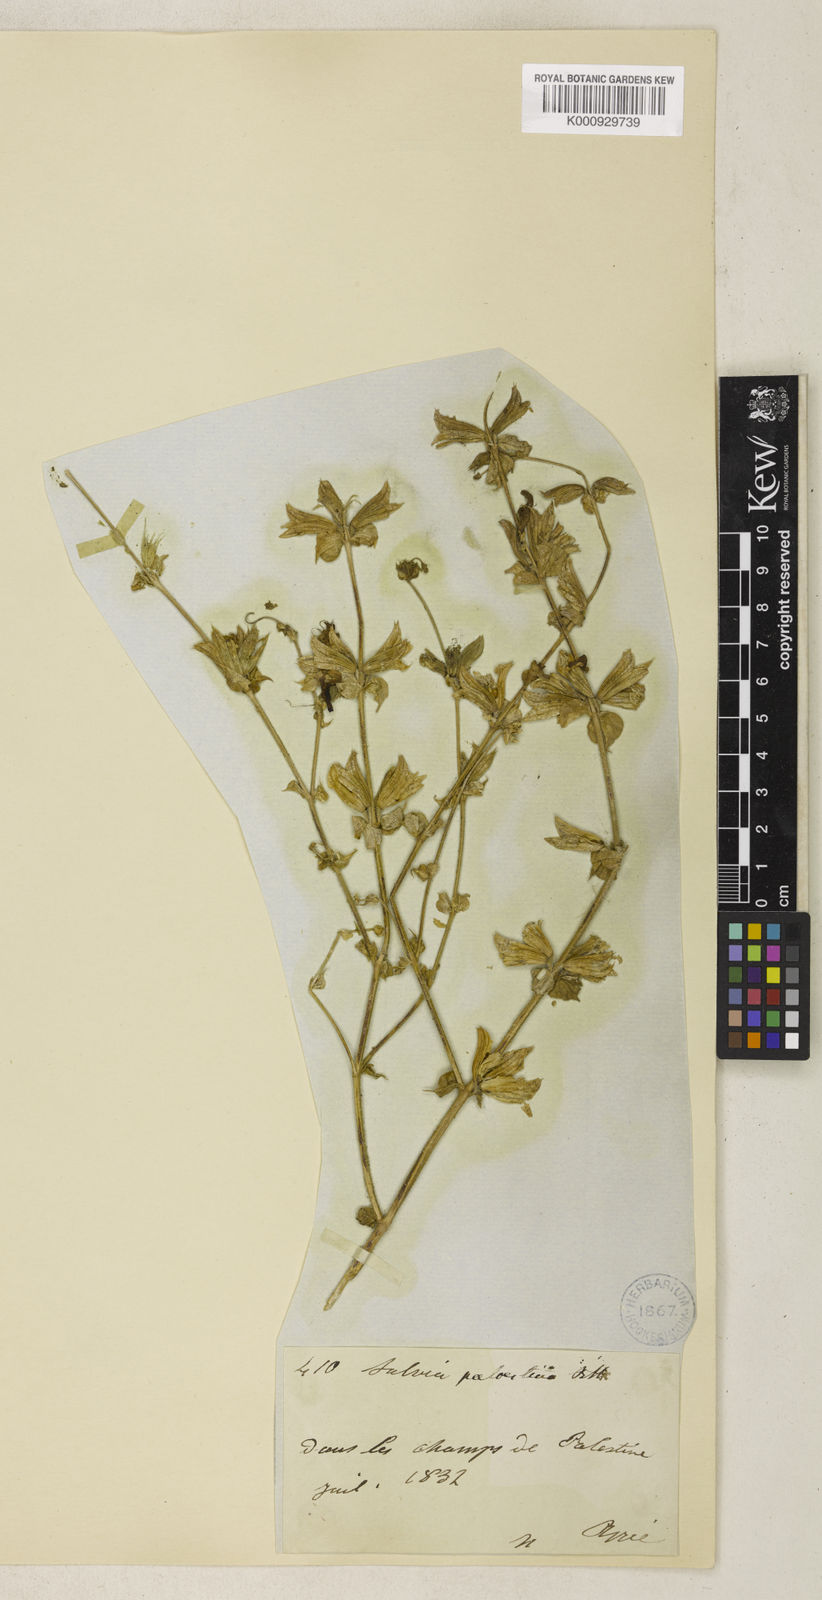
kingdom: Plantae
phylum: Tracheophyta
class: Magnoliopsida
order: Lamiales
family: Lamiaceae
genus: Salvia
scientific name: Salvia palaestina
